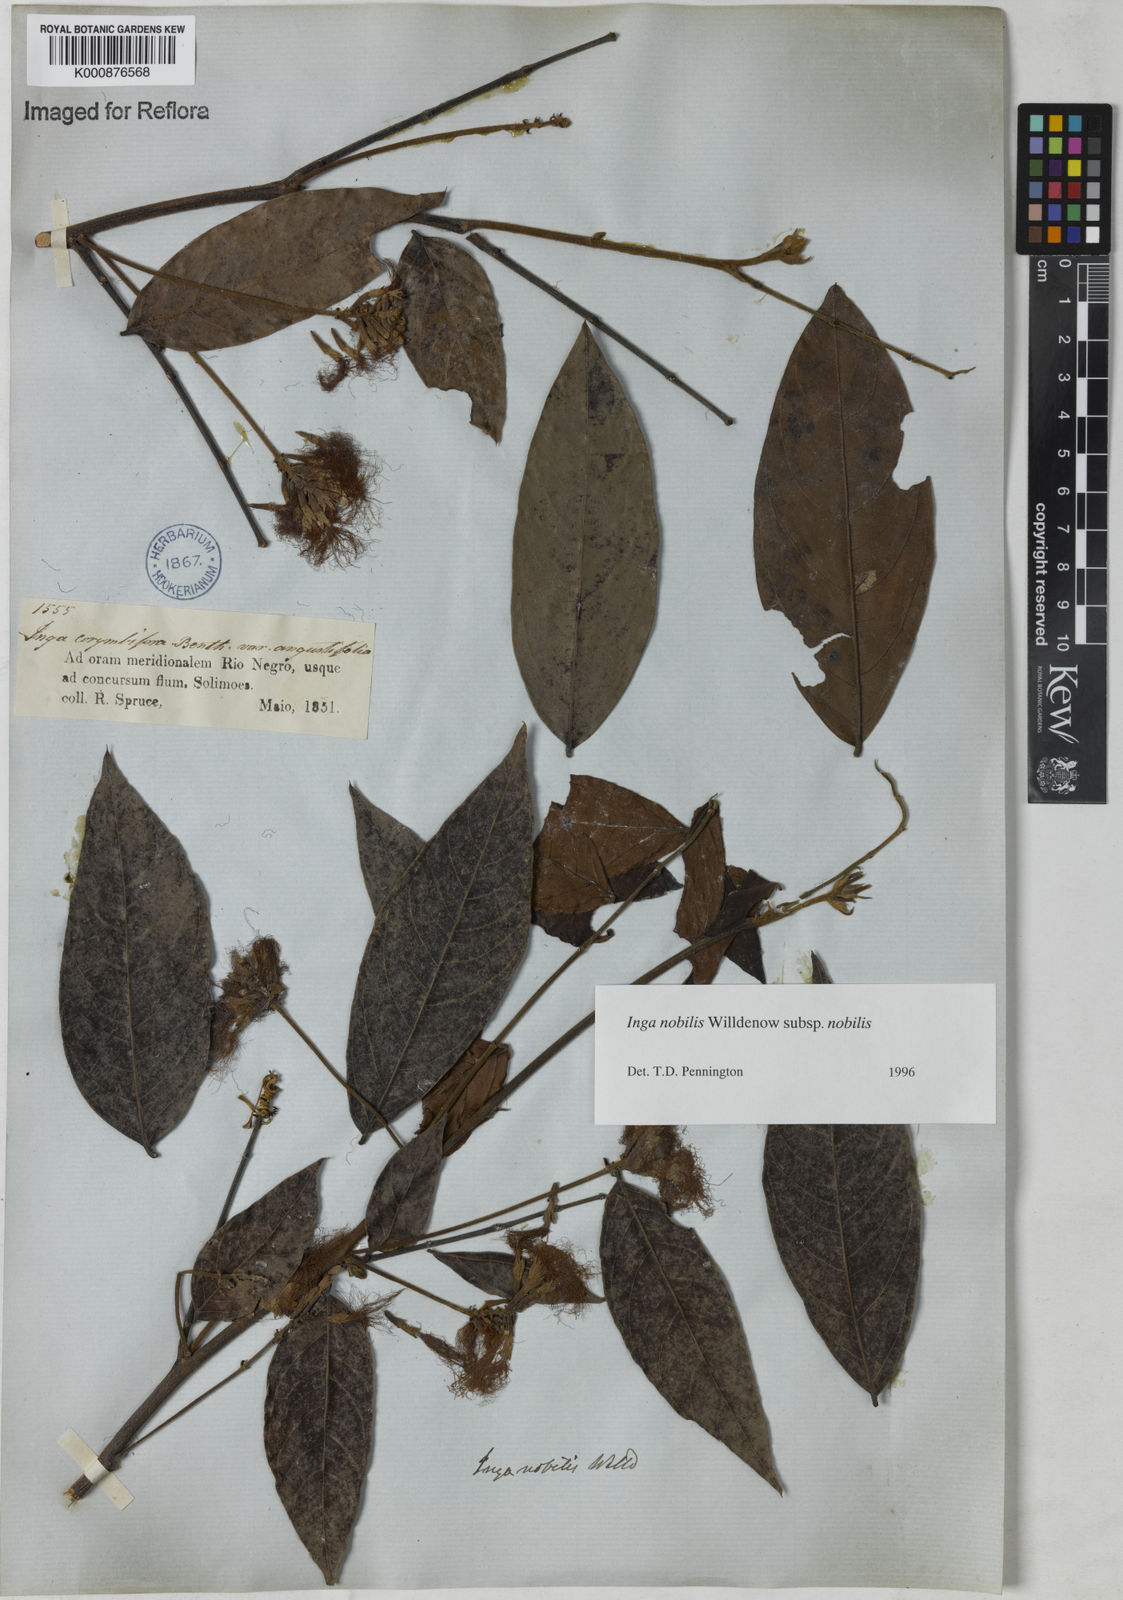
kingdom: Plantae
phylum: Tracheophyta
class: Magnoliopsida
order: Fabales
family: Fabaceae
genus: Inga
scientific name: Inga nobilis
